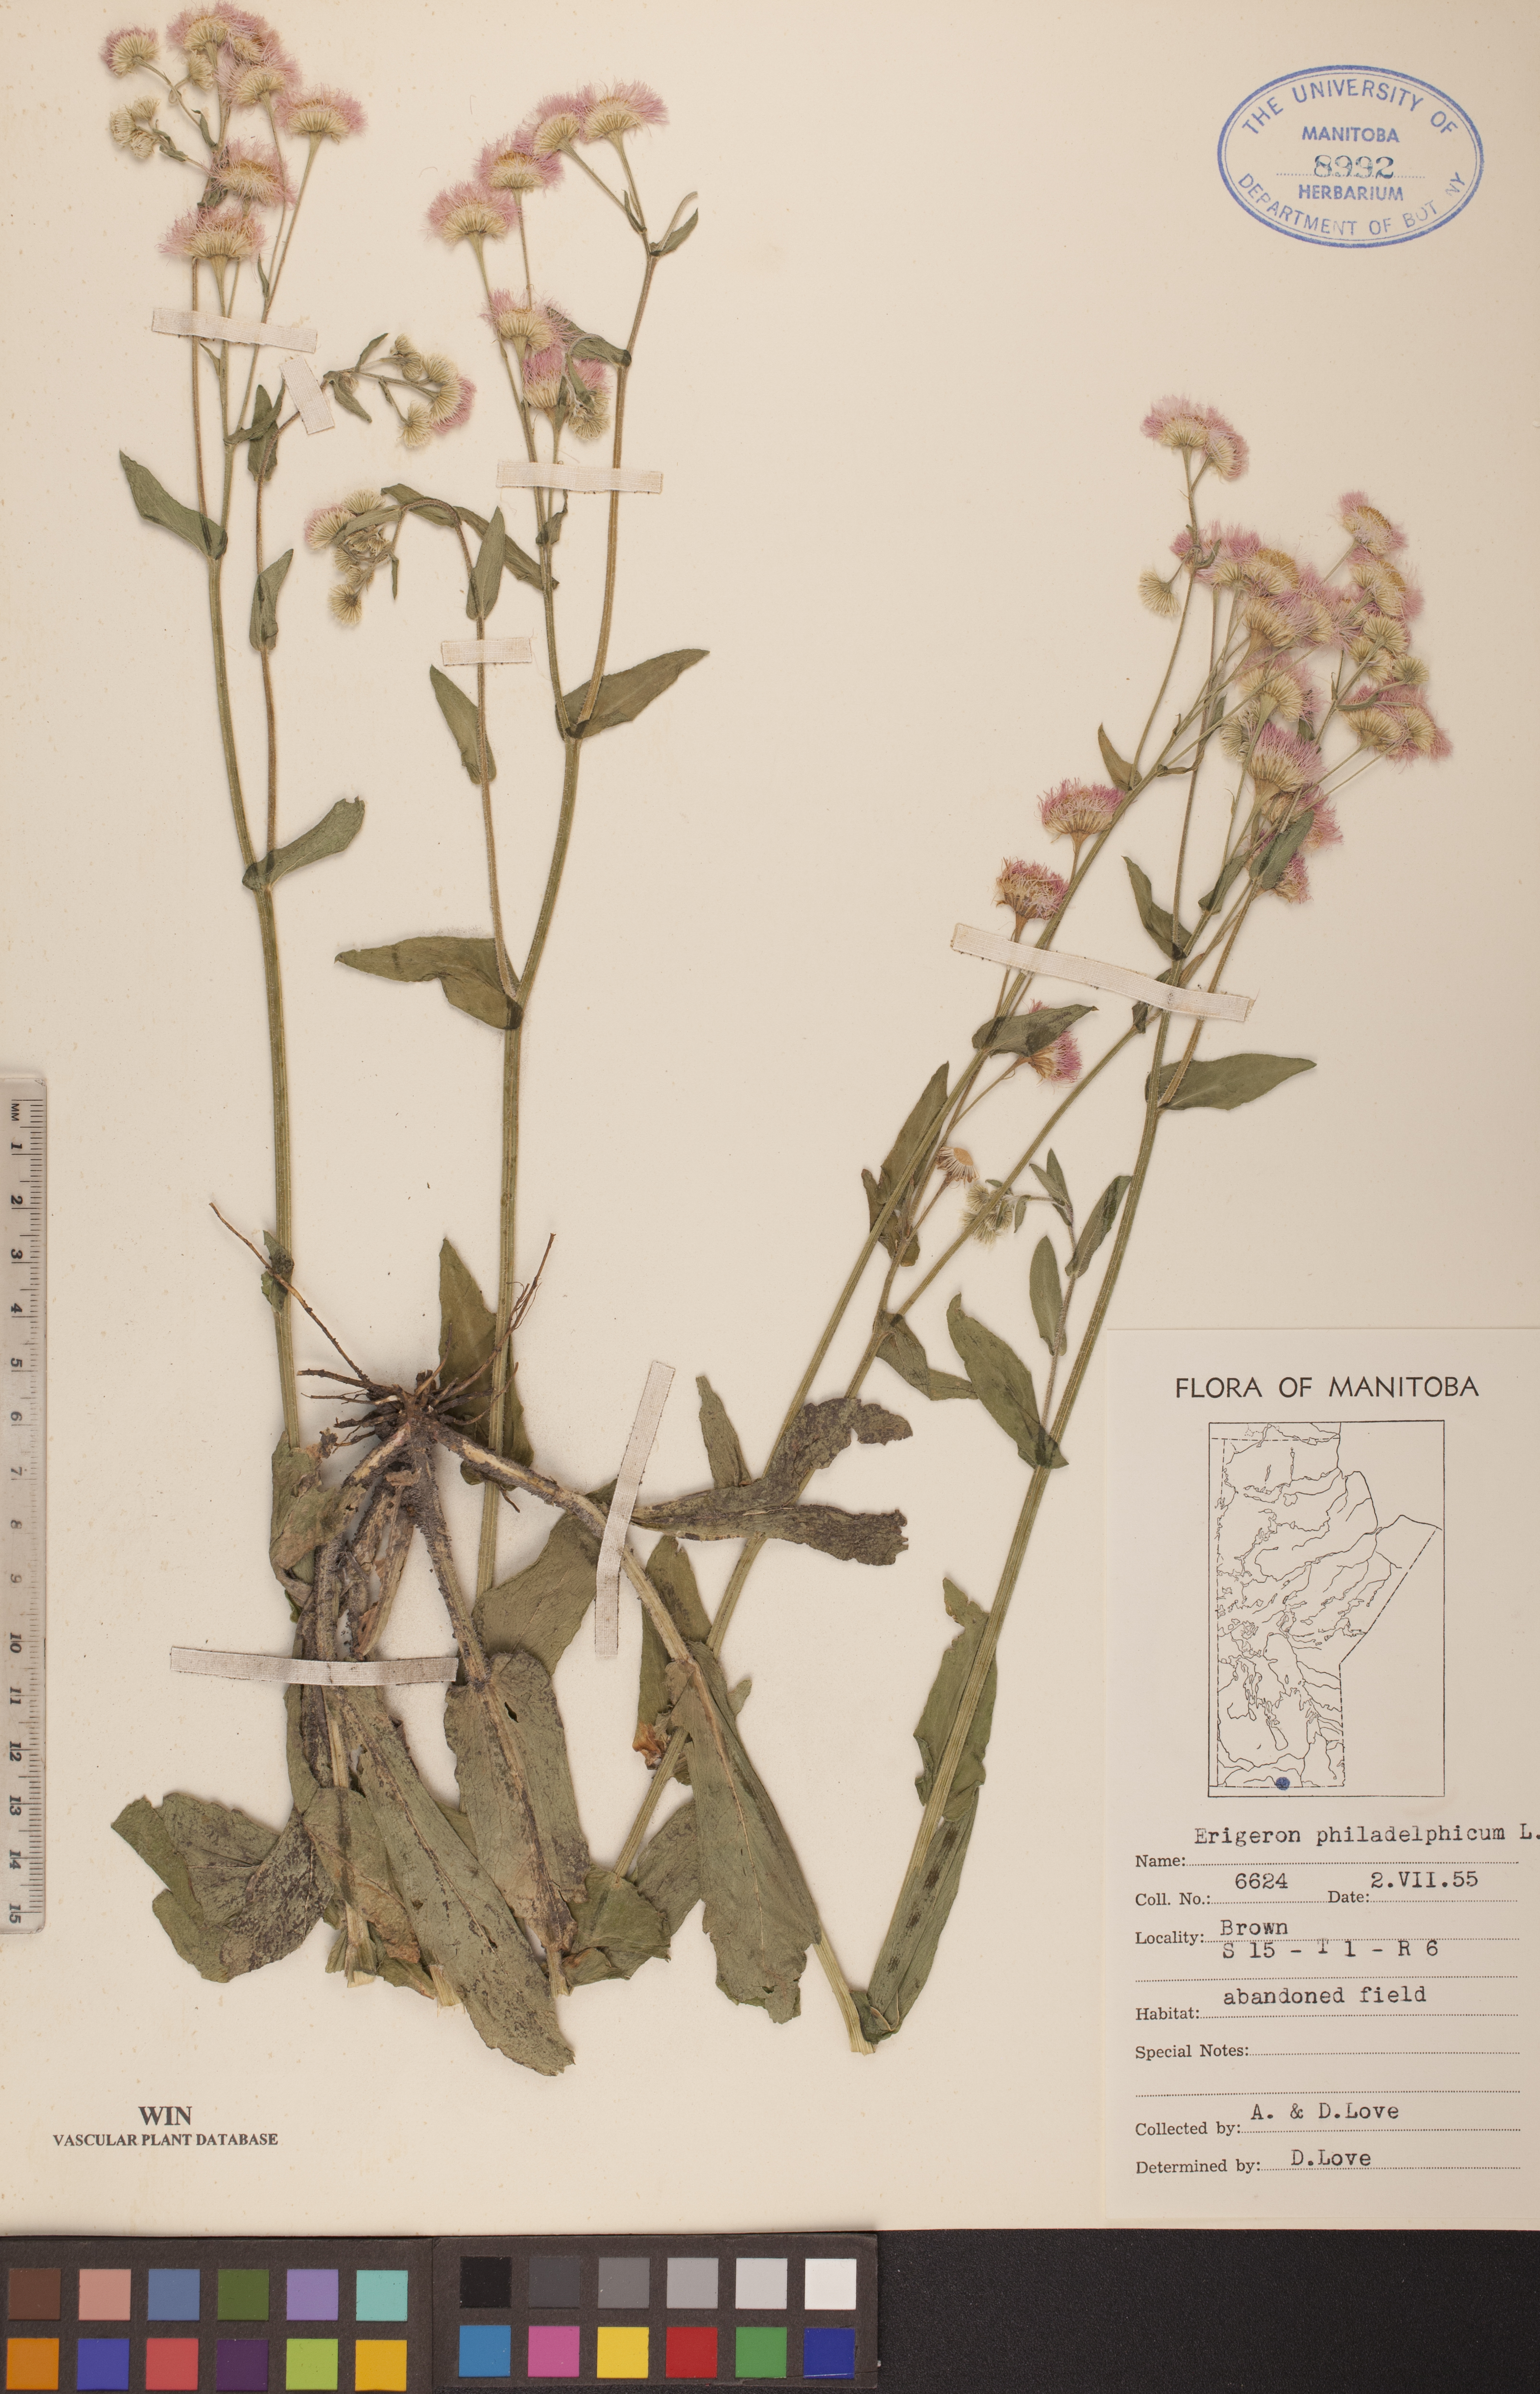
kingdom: Plantae
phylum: Tracheophyta
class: Magnoliopsida
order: Asterales
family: Asteraceae
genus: Erigeron
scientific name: Erigeron philadelphicus
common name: Robin's-plantain
